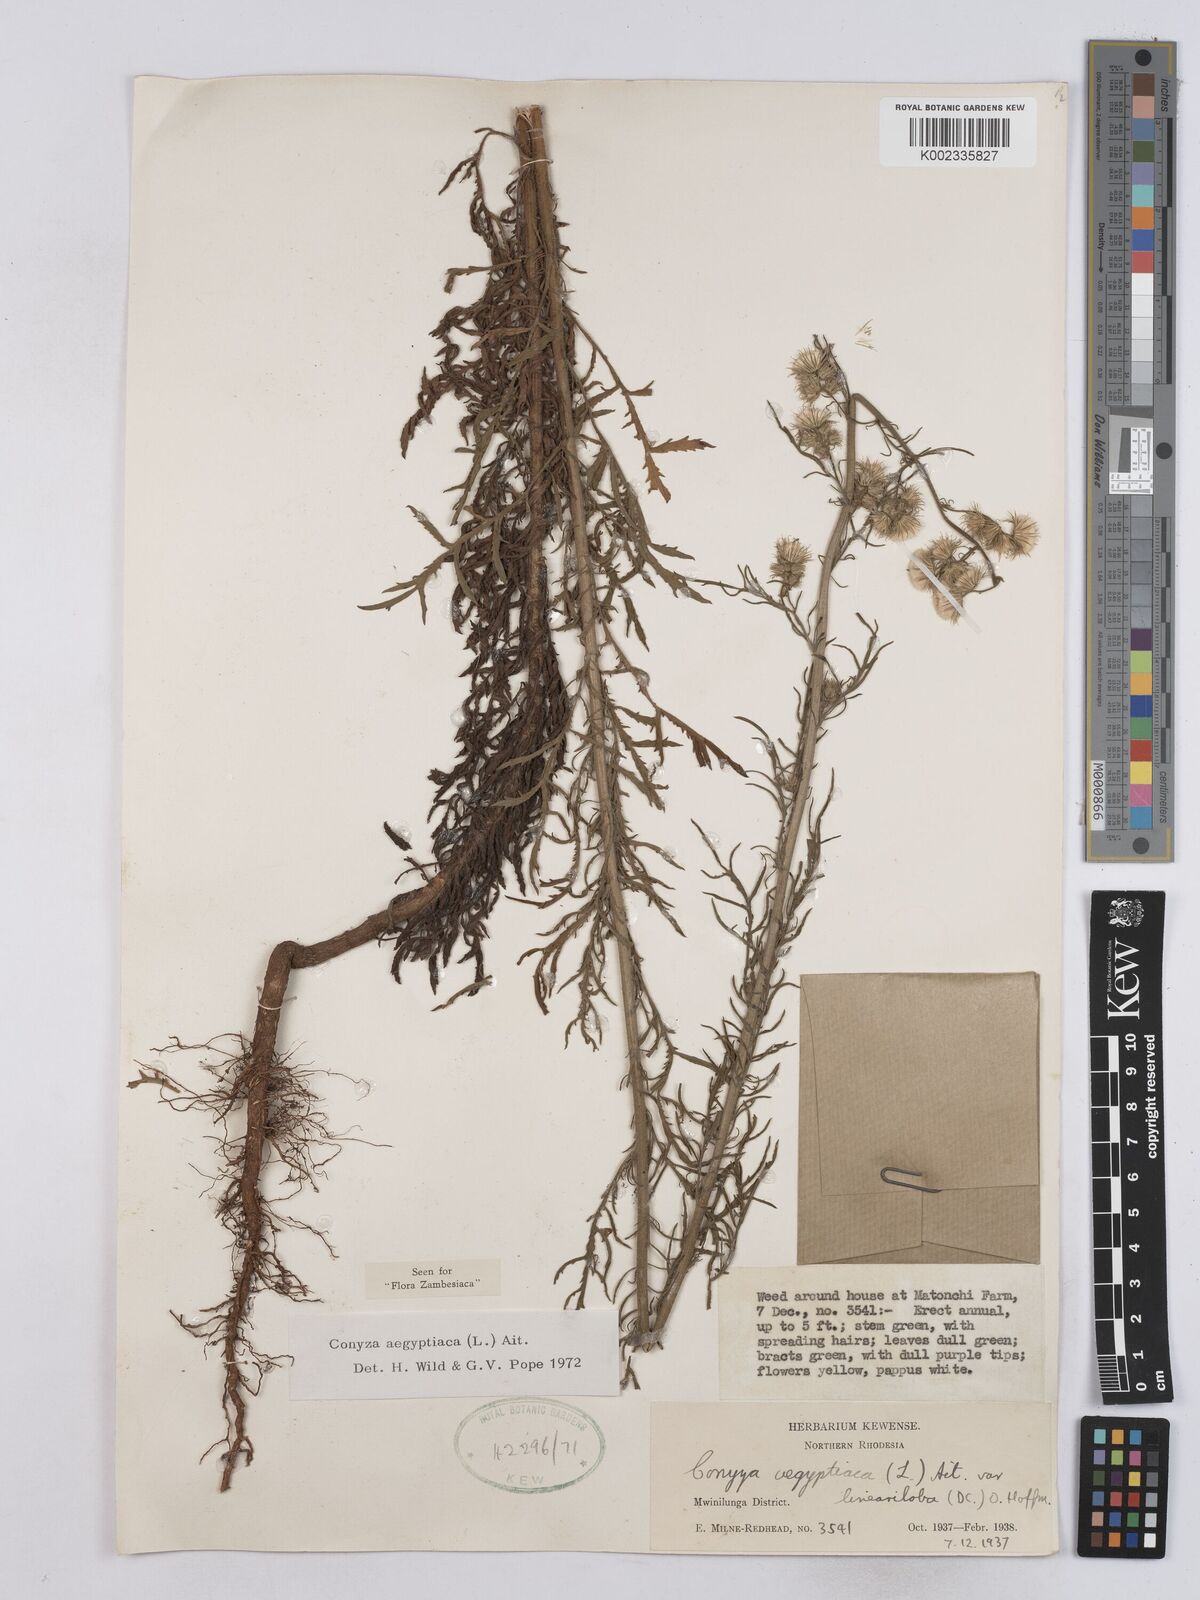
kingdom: Plantae
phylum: Tracheophyta
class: Magnoliopsida
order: Asterales
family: Asteraceae
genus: Nidorella
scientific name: Nidorella aegyptiaca
